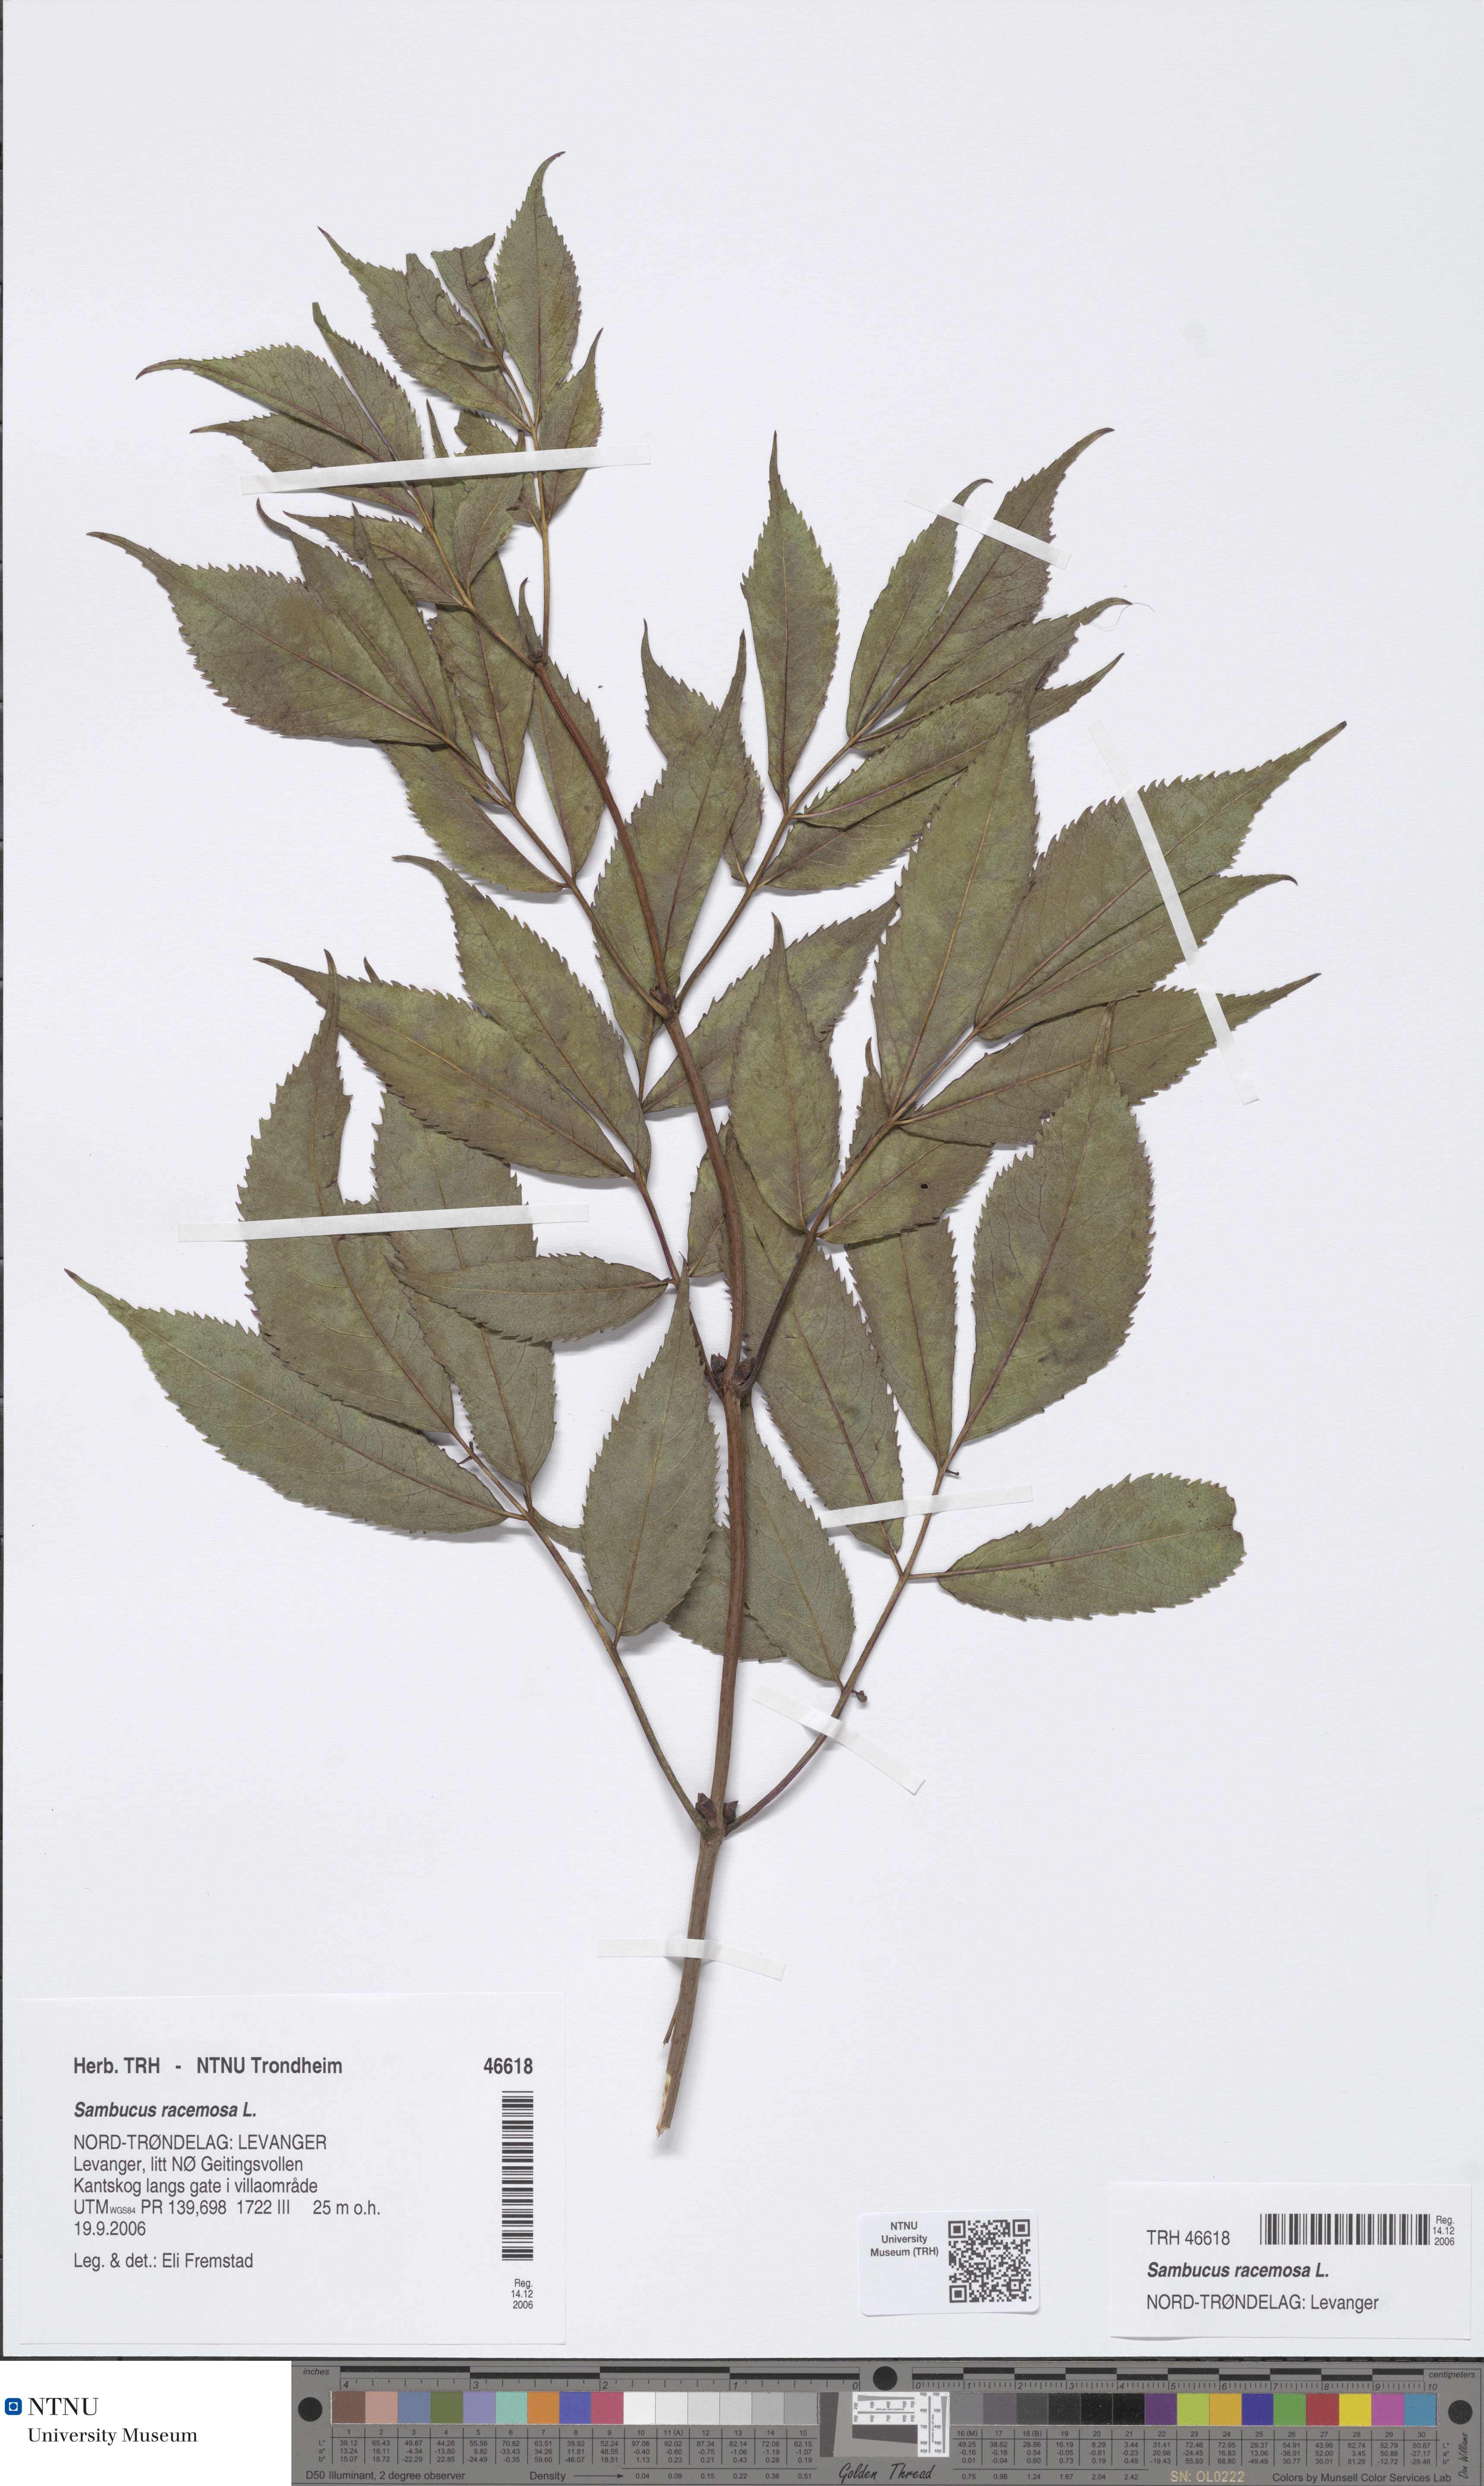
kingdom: Plantae
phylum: Tracheophyta
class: Magnoliopsida
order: Dipsacales
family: Viburnaceae
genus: Sambucus
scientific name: Sambucus racemosa
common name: Red-berried elder
